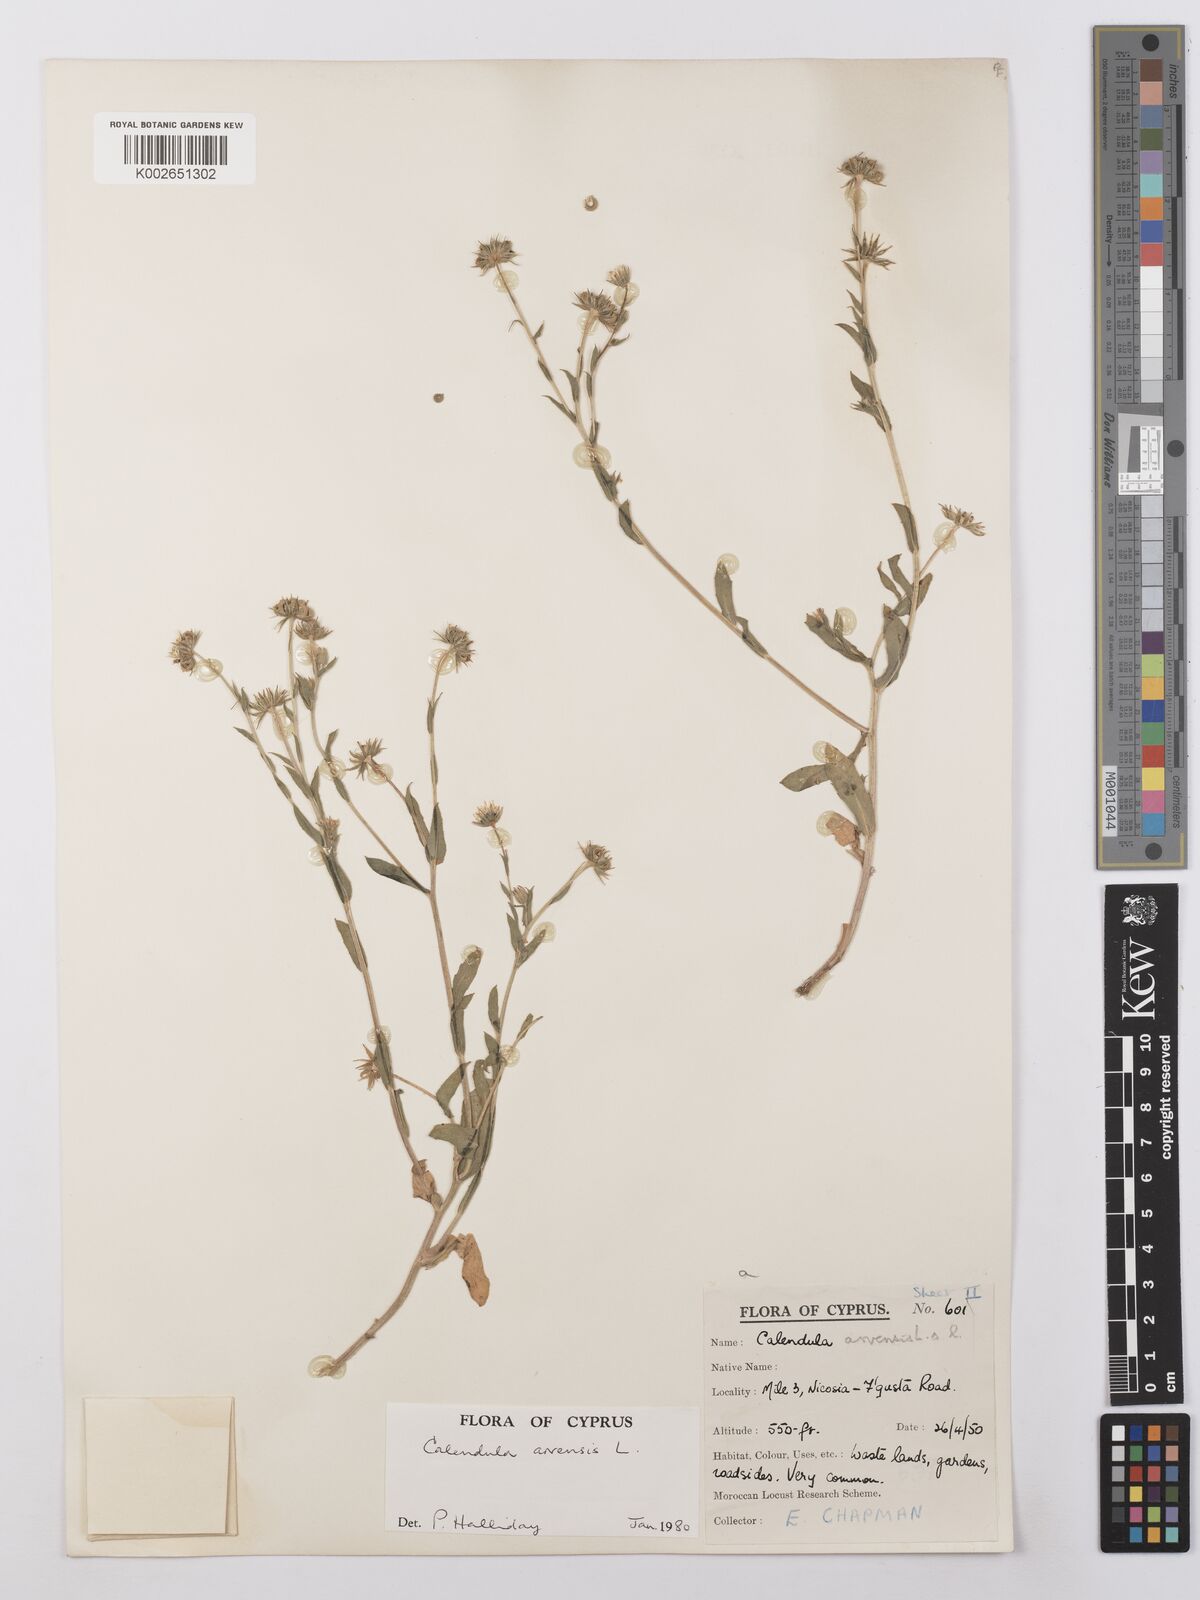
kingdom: Plantae
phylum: Tracheophyta
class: Magnoliopsida
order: Asterales
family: Asteraceae
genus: Calendula
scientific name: Calendula arvensis
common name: Field marigold
